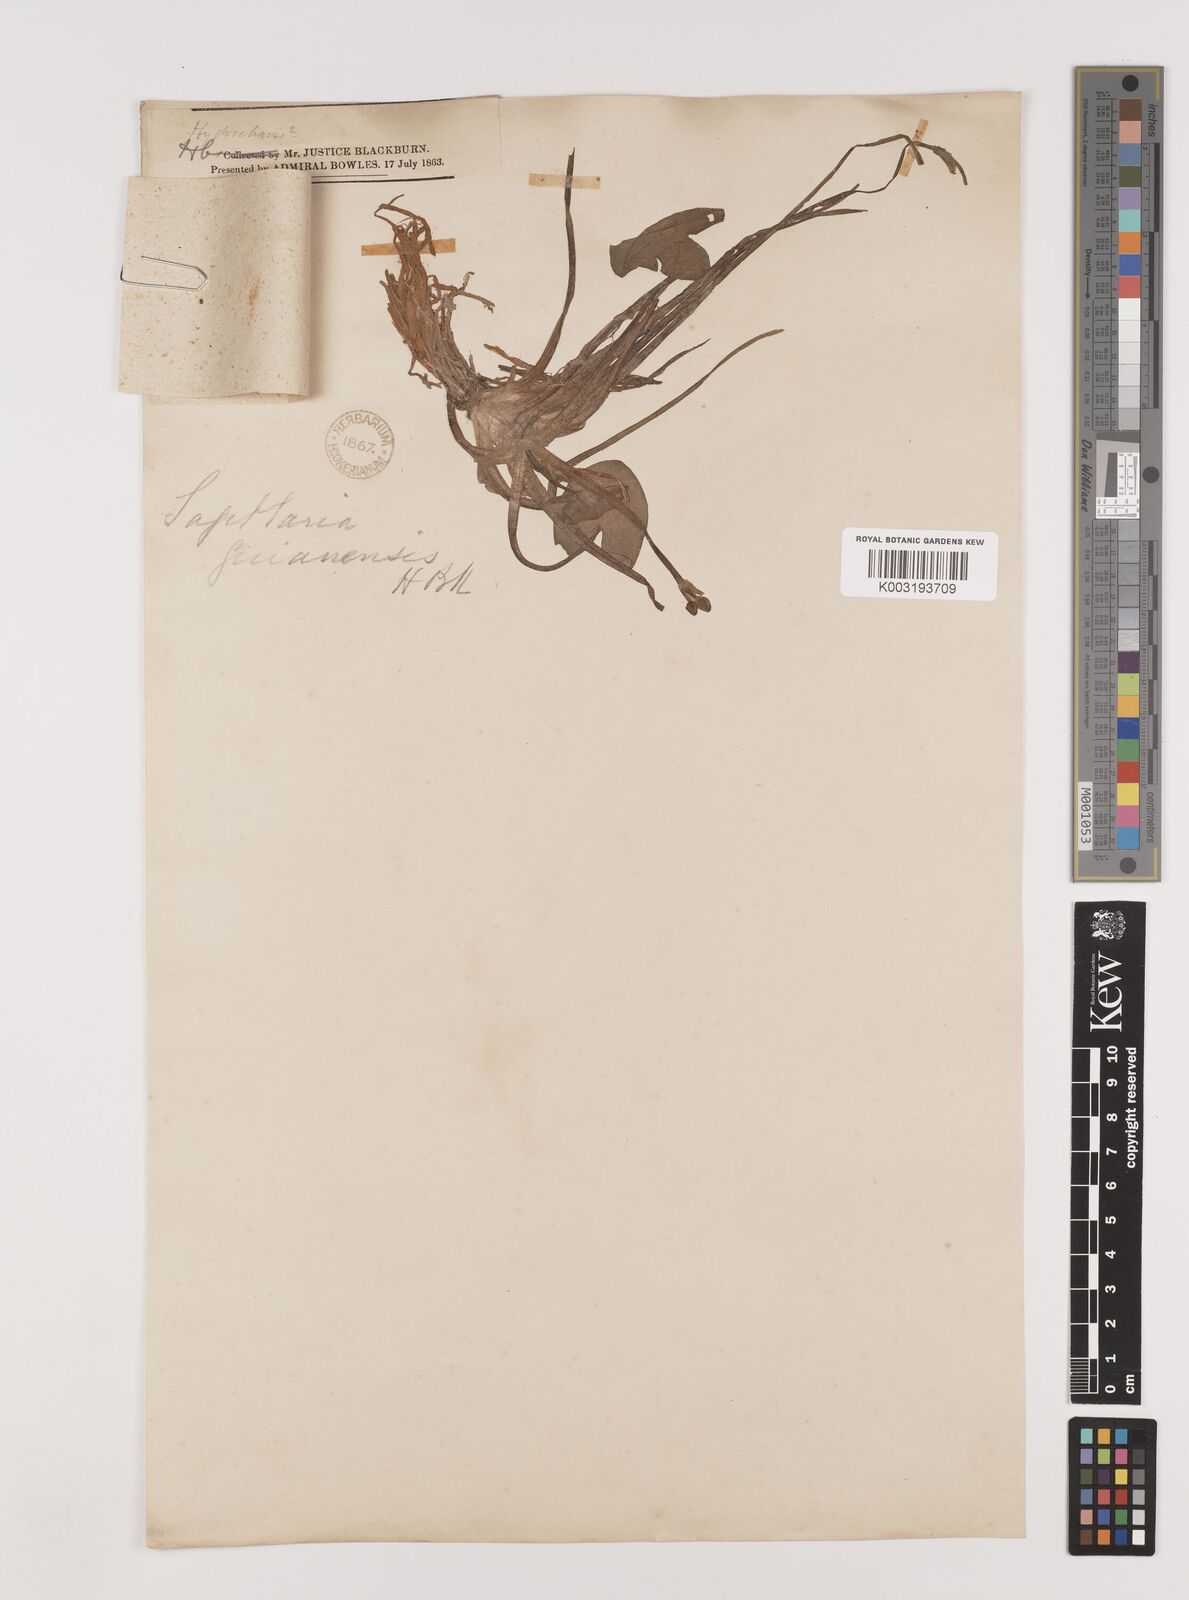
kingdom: Plantae
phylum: Tracheophyta
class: Liliopsida
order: Alismatales
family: Alismataceae
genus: Sagittaria
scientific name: Sagittaria guayanensis
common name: Guyanese arrowhead
